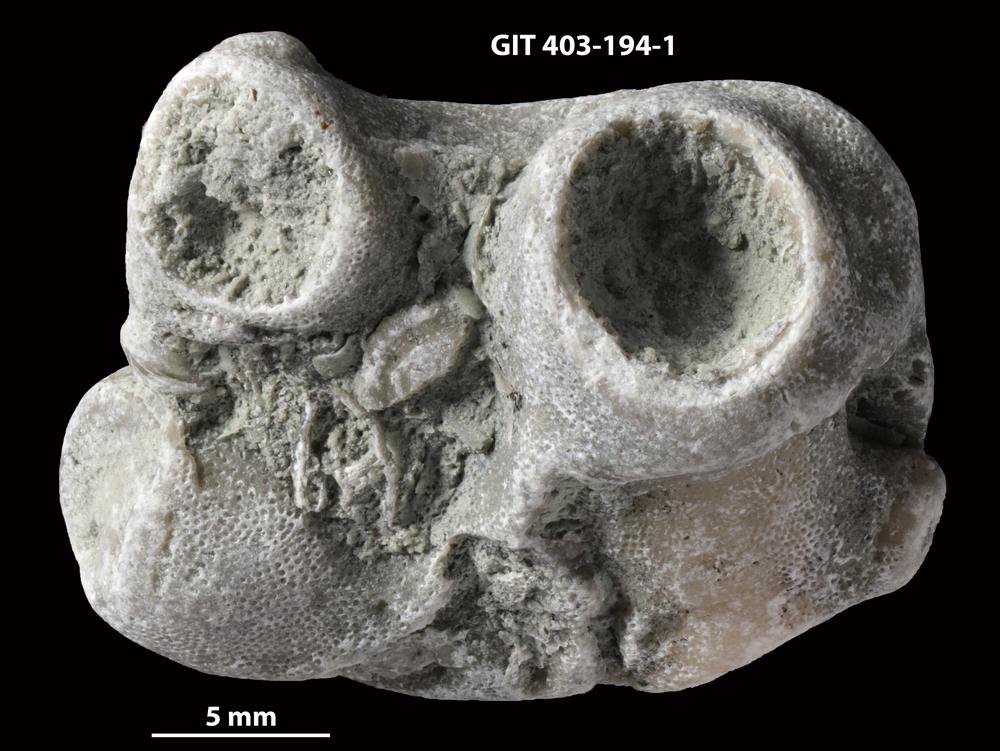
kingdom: Animalia
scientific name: Animalia
